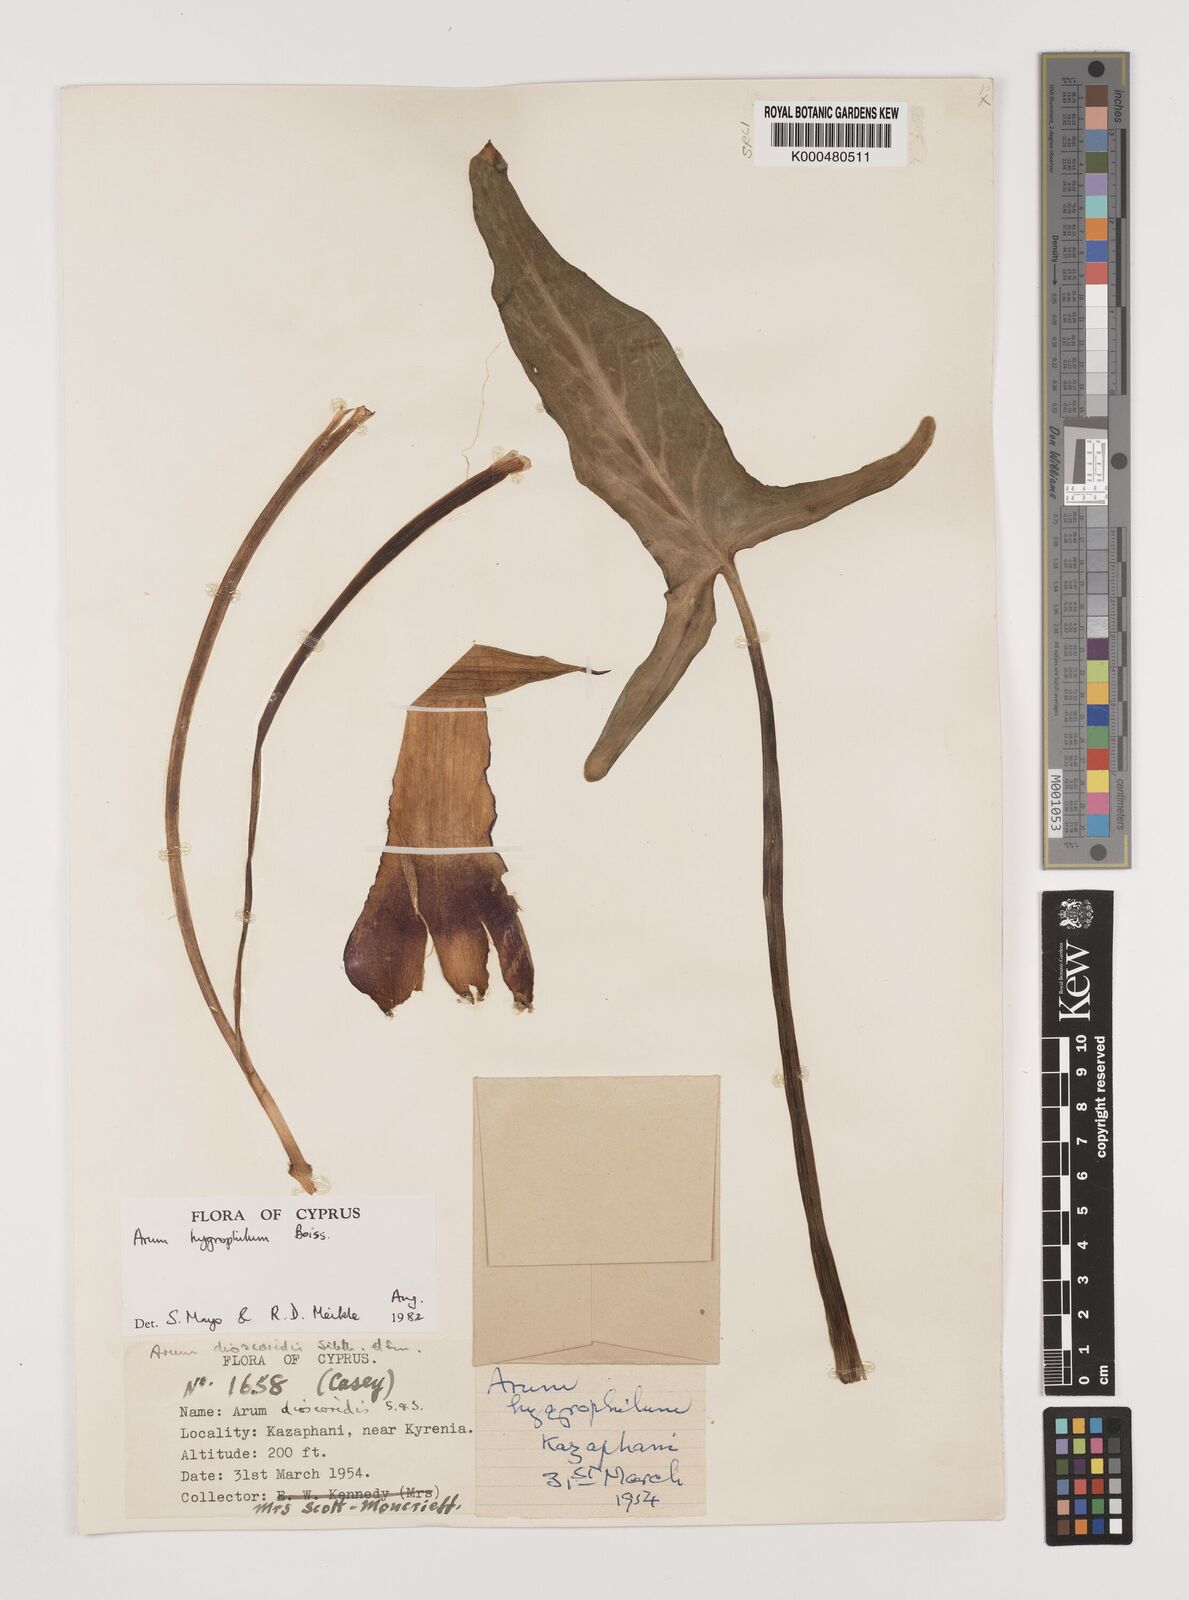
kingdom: Plantae
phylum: Tracheophyta
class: Liliopsida
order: Alismatales
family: Araceae
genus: Arum
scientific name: Arum hygrophilum
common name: Water arum
